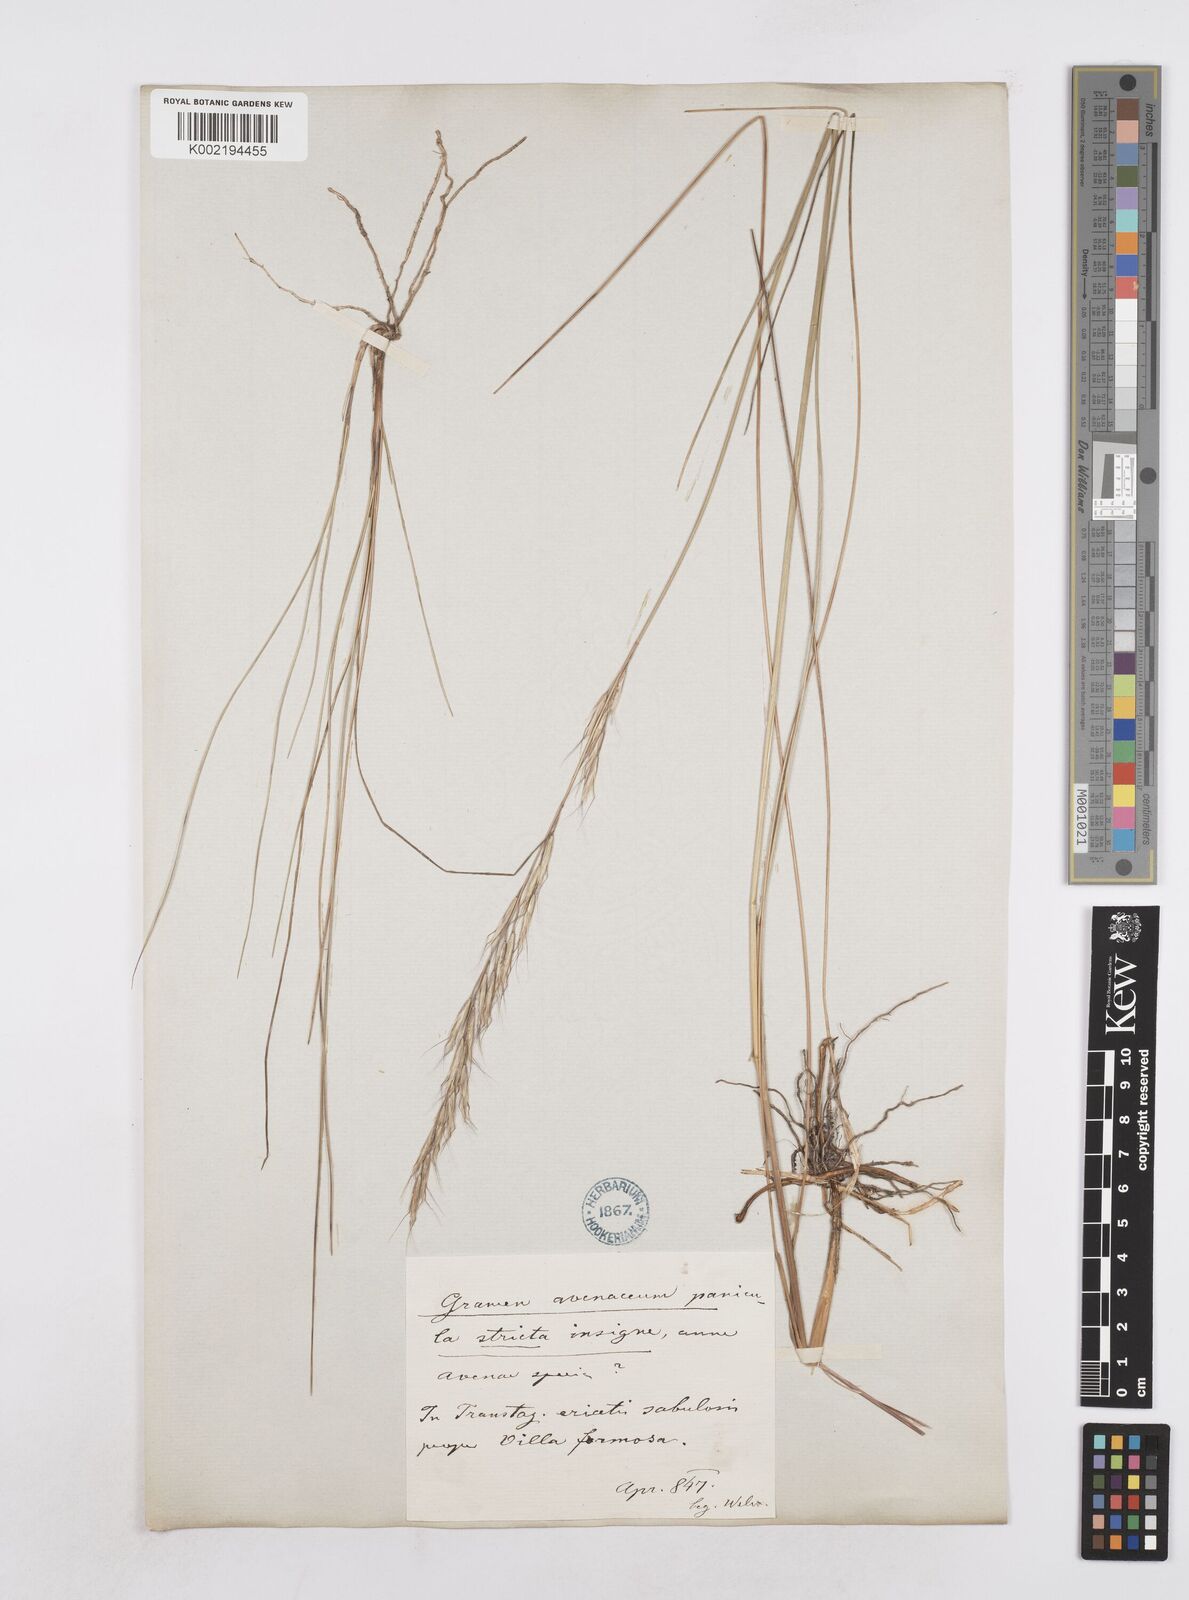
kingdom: Plantae
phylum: Tracheophyta
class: Liliopsida
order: Poales
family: Poaceae
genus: Helictotrichon
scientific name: Helictotrichon convolutum
